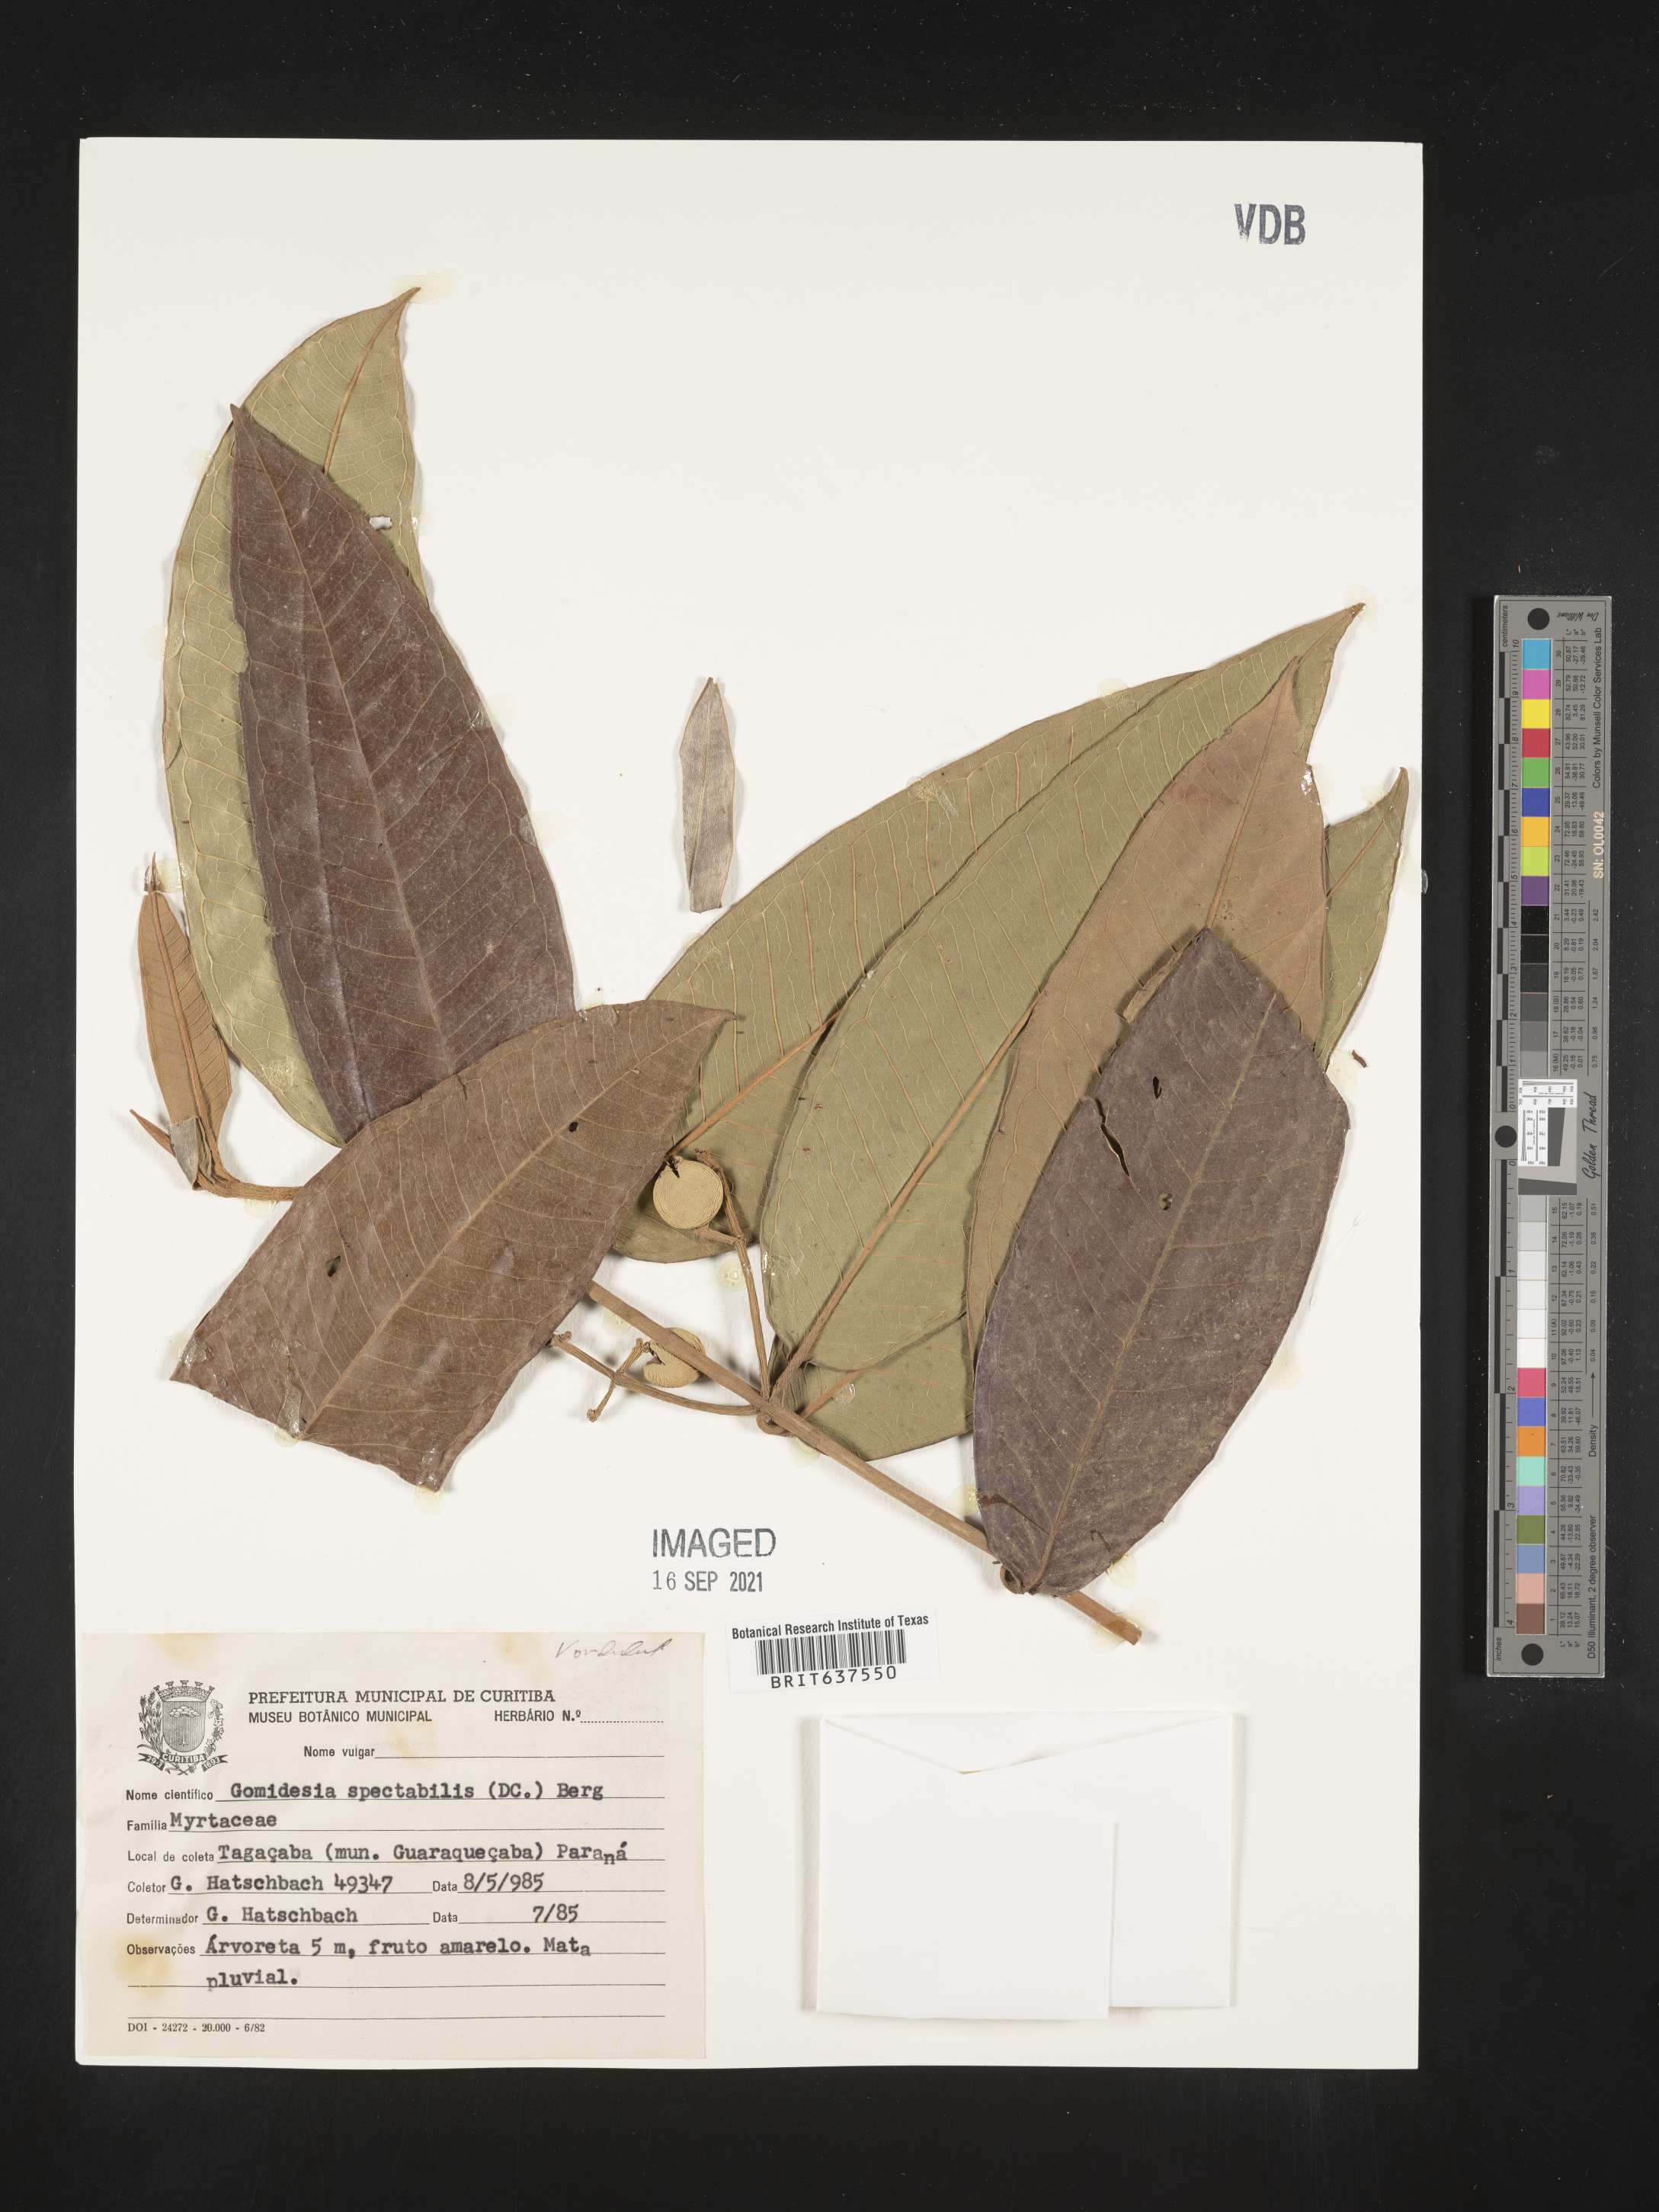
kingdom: Plantae
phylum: Tracheophyta
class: Magnoliopsida
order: Myrtales
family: Myrtaceae
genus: Myrcia
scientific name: Myrcia
